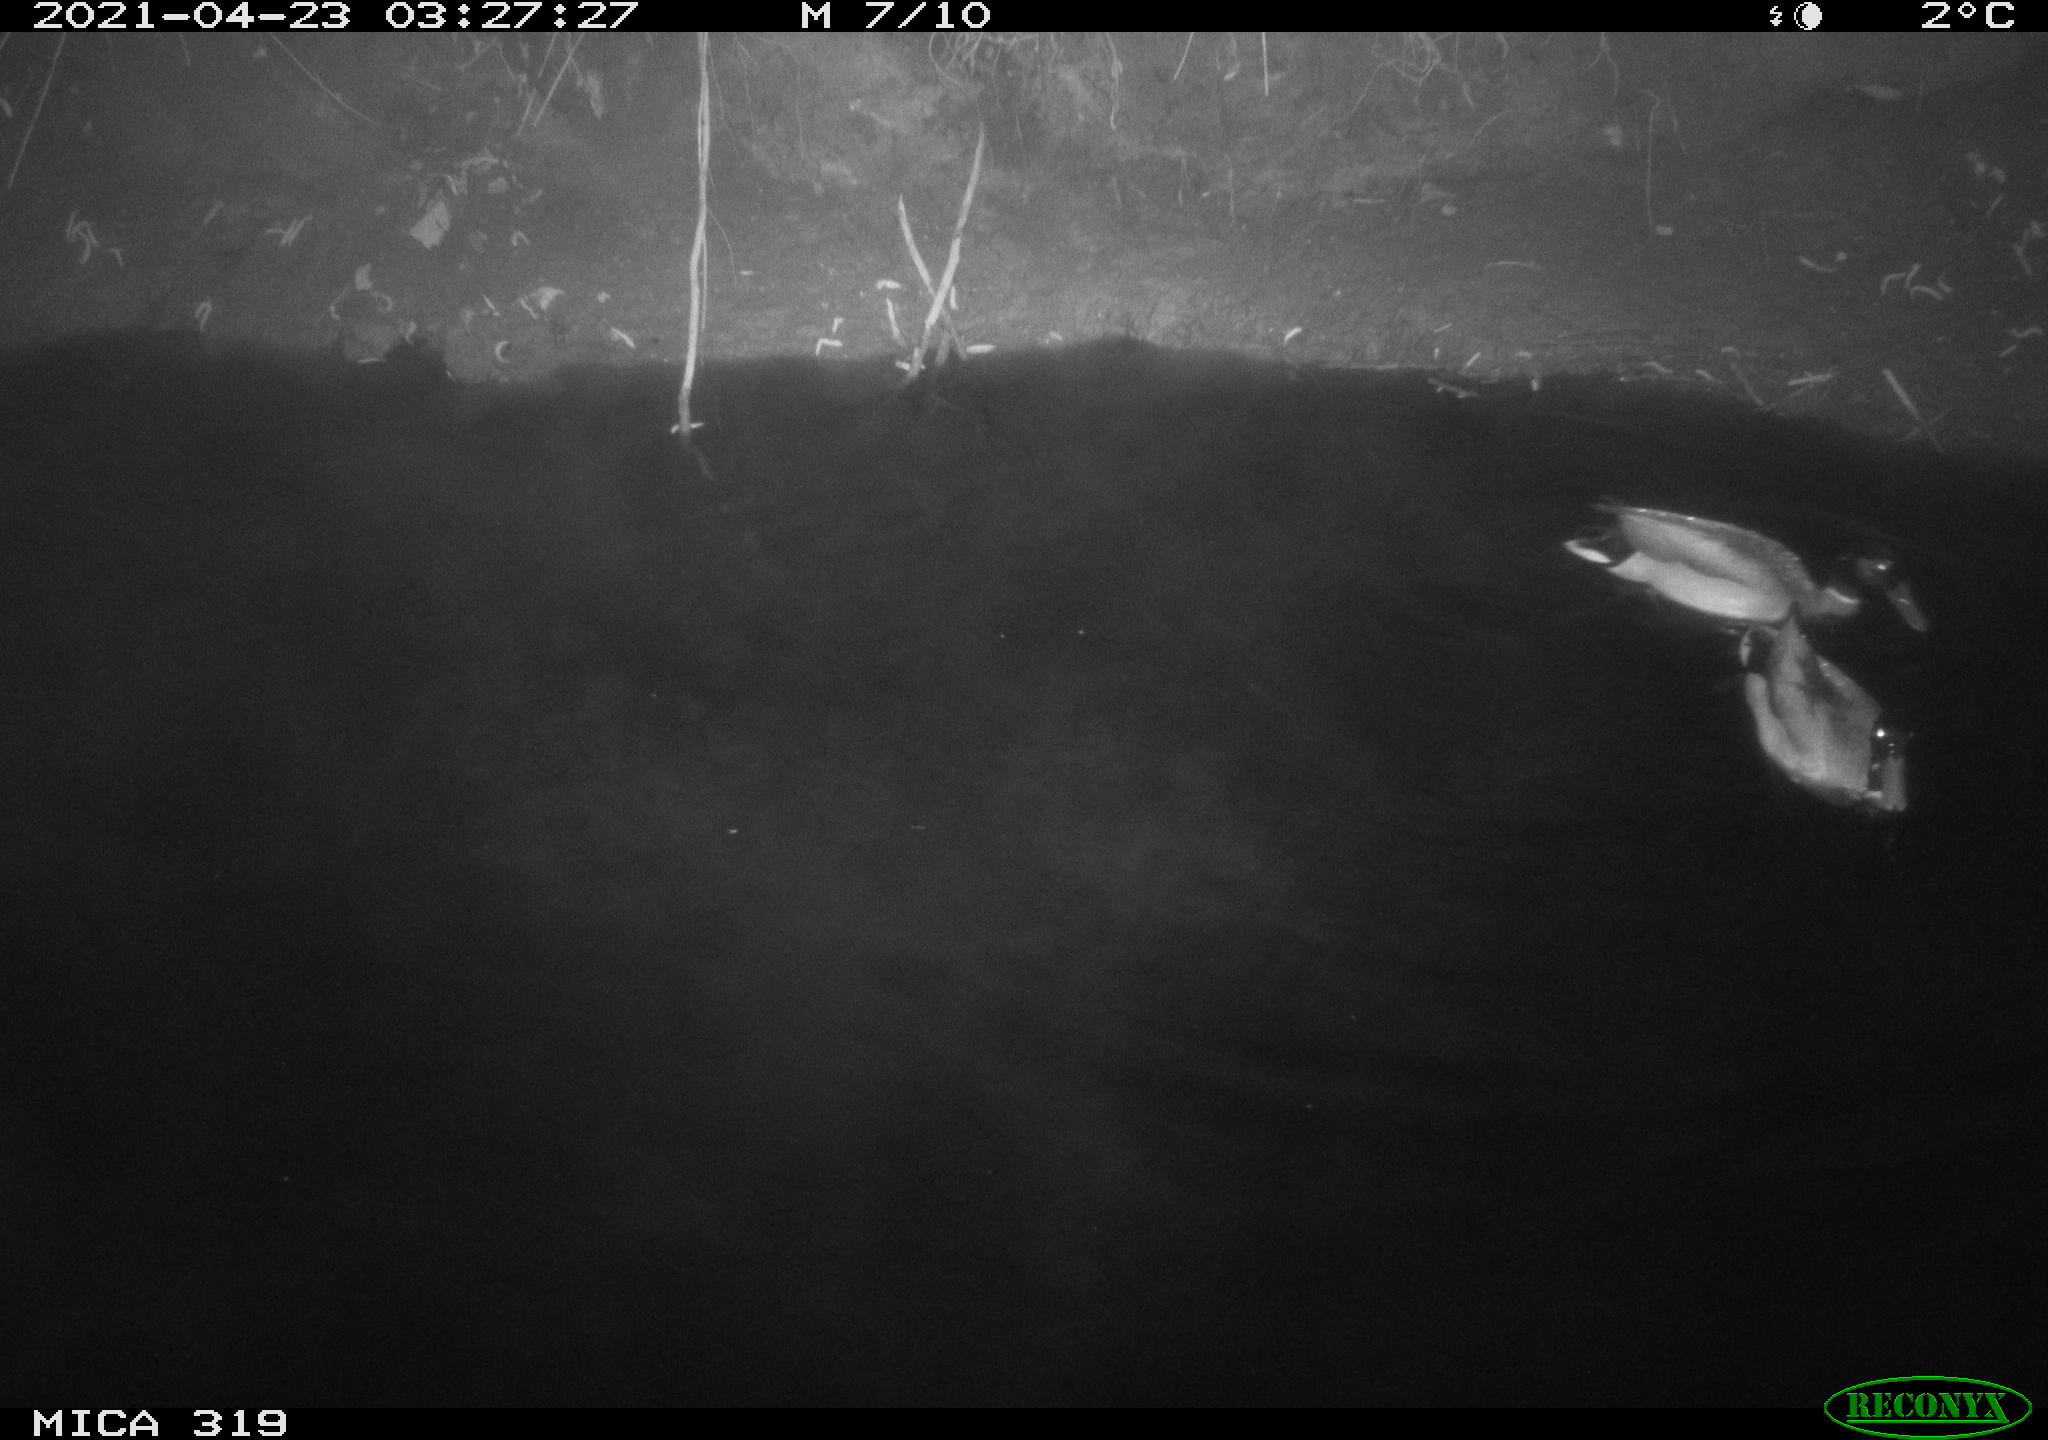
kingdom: Animalia
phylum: Chordata
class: Aves
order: Anseriformes
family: Anatidae
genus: Anas
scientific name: Anas platyrhynchos
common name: Mallard
